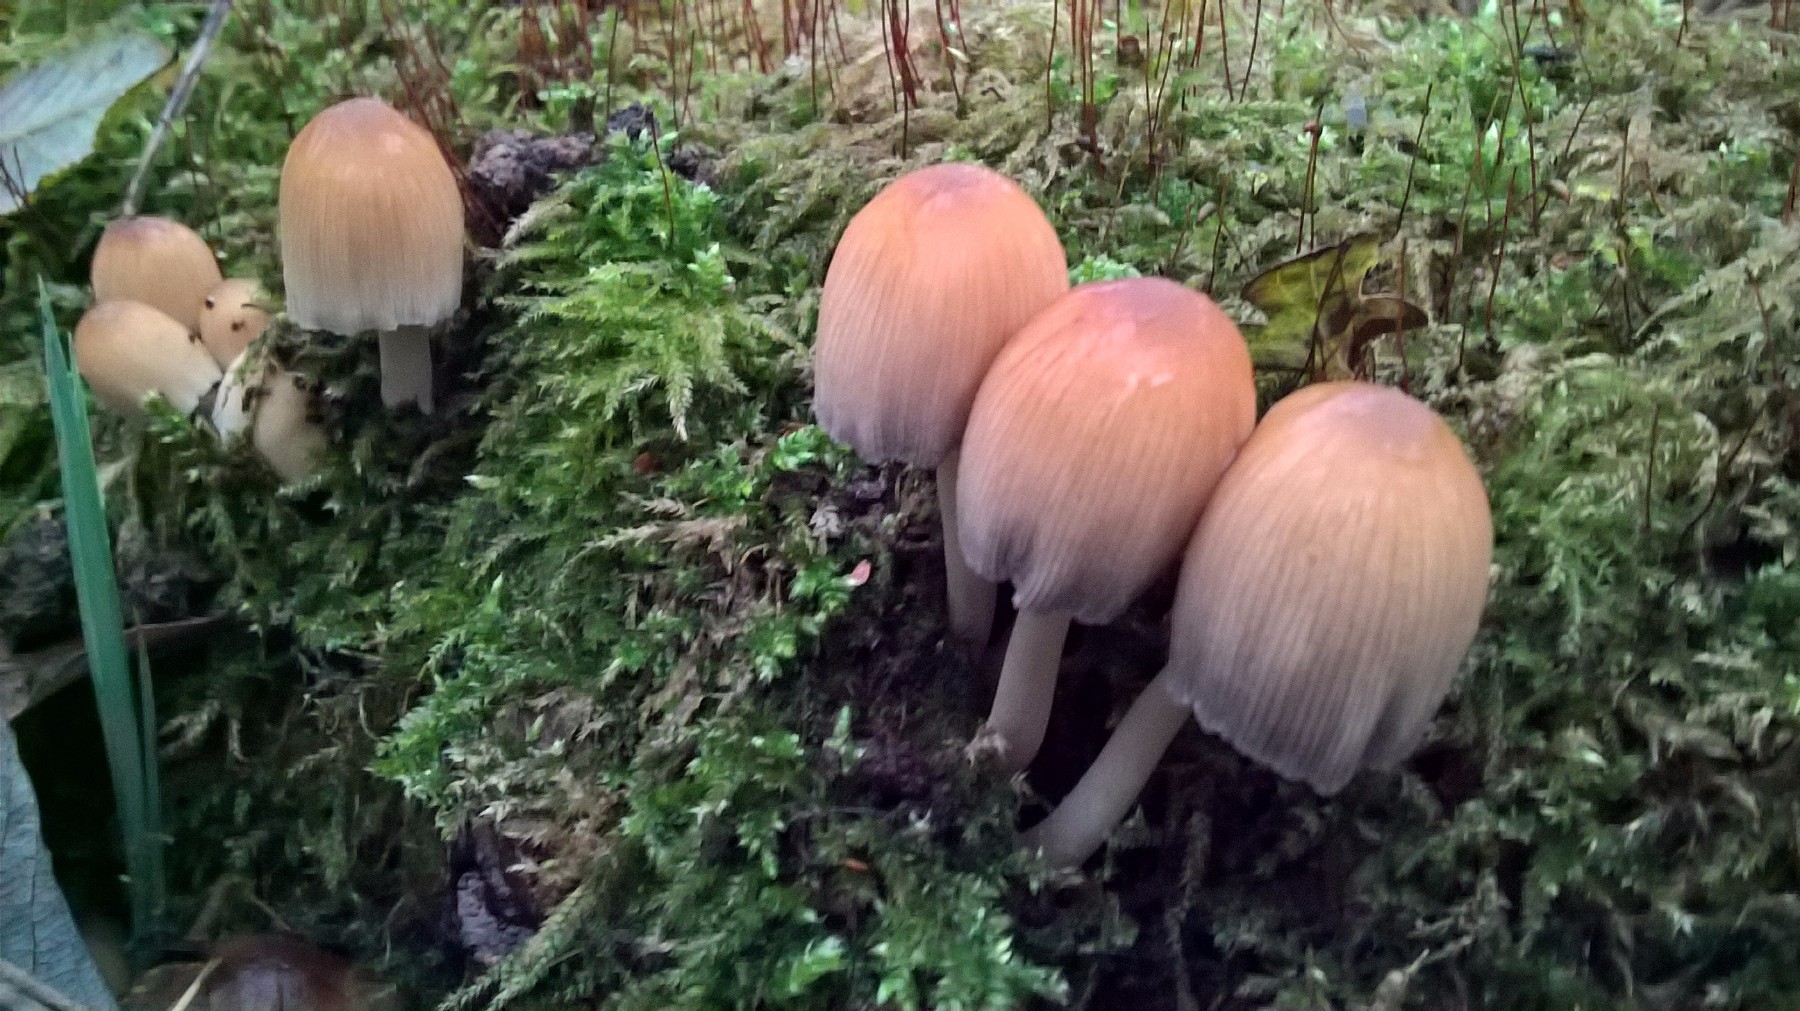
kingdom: Fungi
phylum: Basidiomycota
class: Agaricomycetes
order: Agaricales
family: Psathyrellaceae
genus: Coprinellus
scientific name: Coprinellus
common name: blækhat
